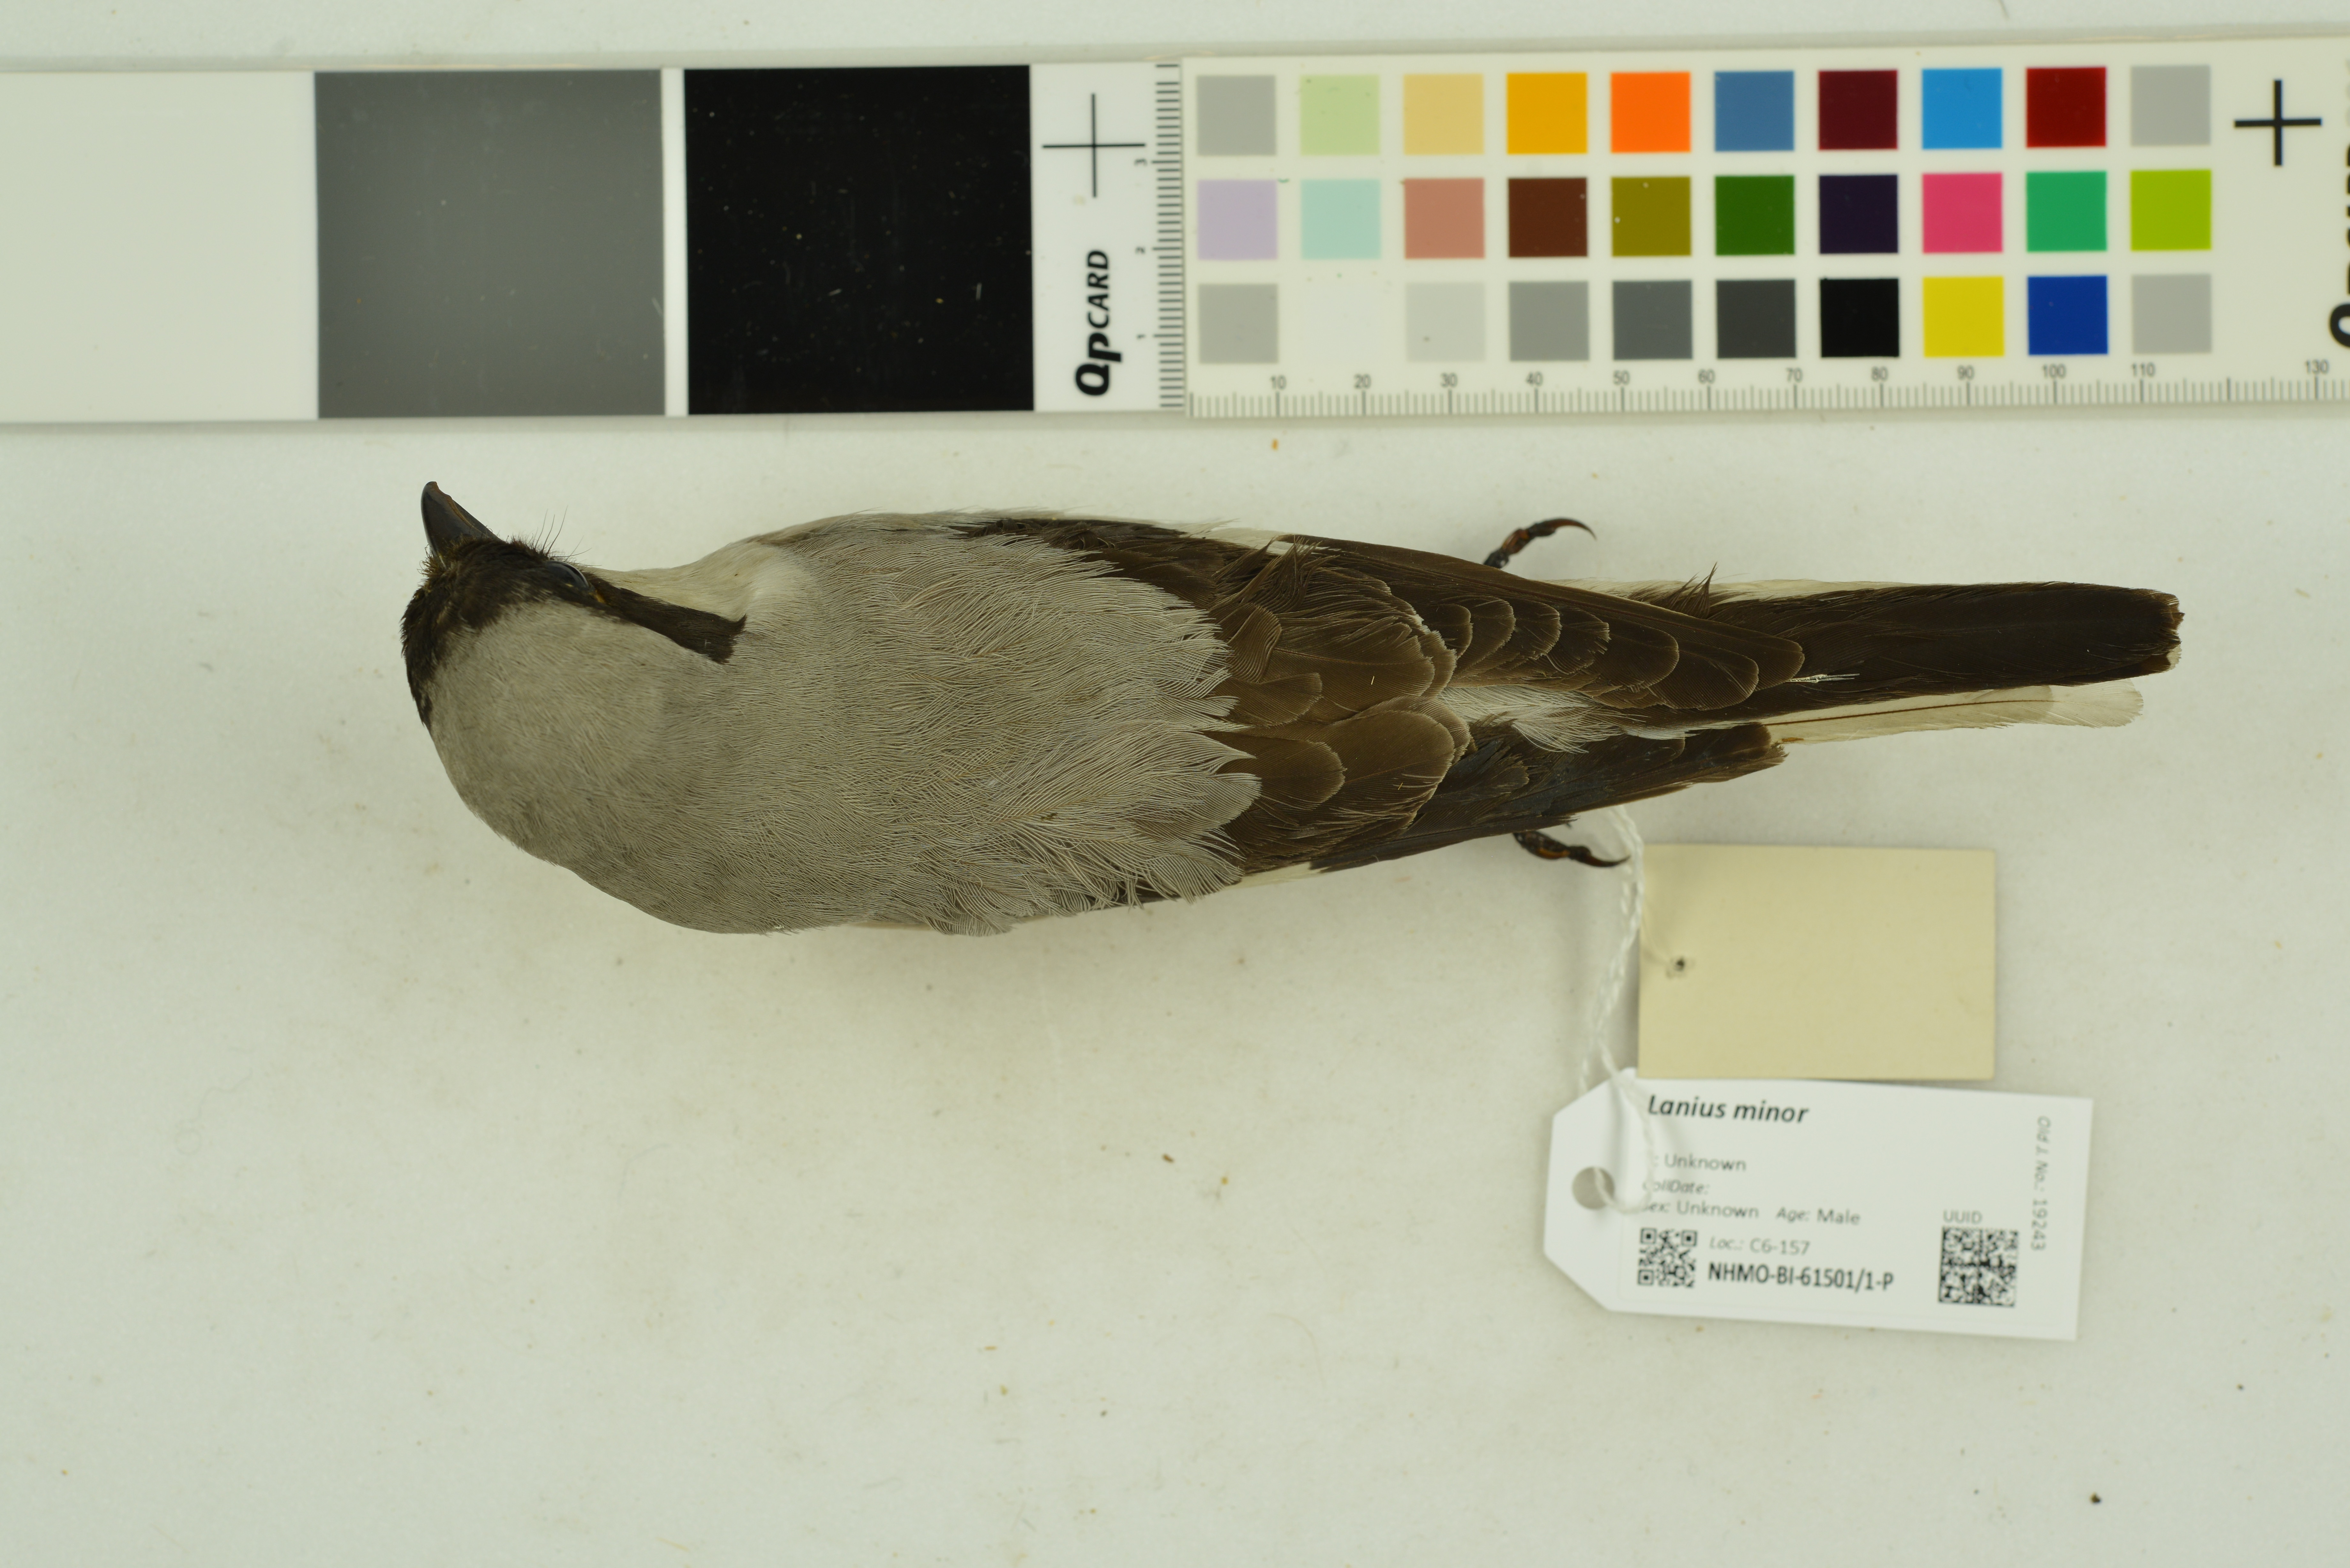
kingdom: Animalia
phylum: Chordata
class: Aves
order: Passeriformes
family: Laniidae
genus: Lanius
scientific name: Lanius minor
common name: Lesser grey shrike
